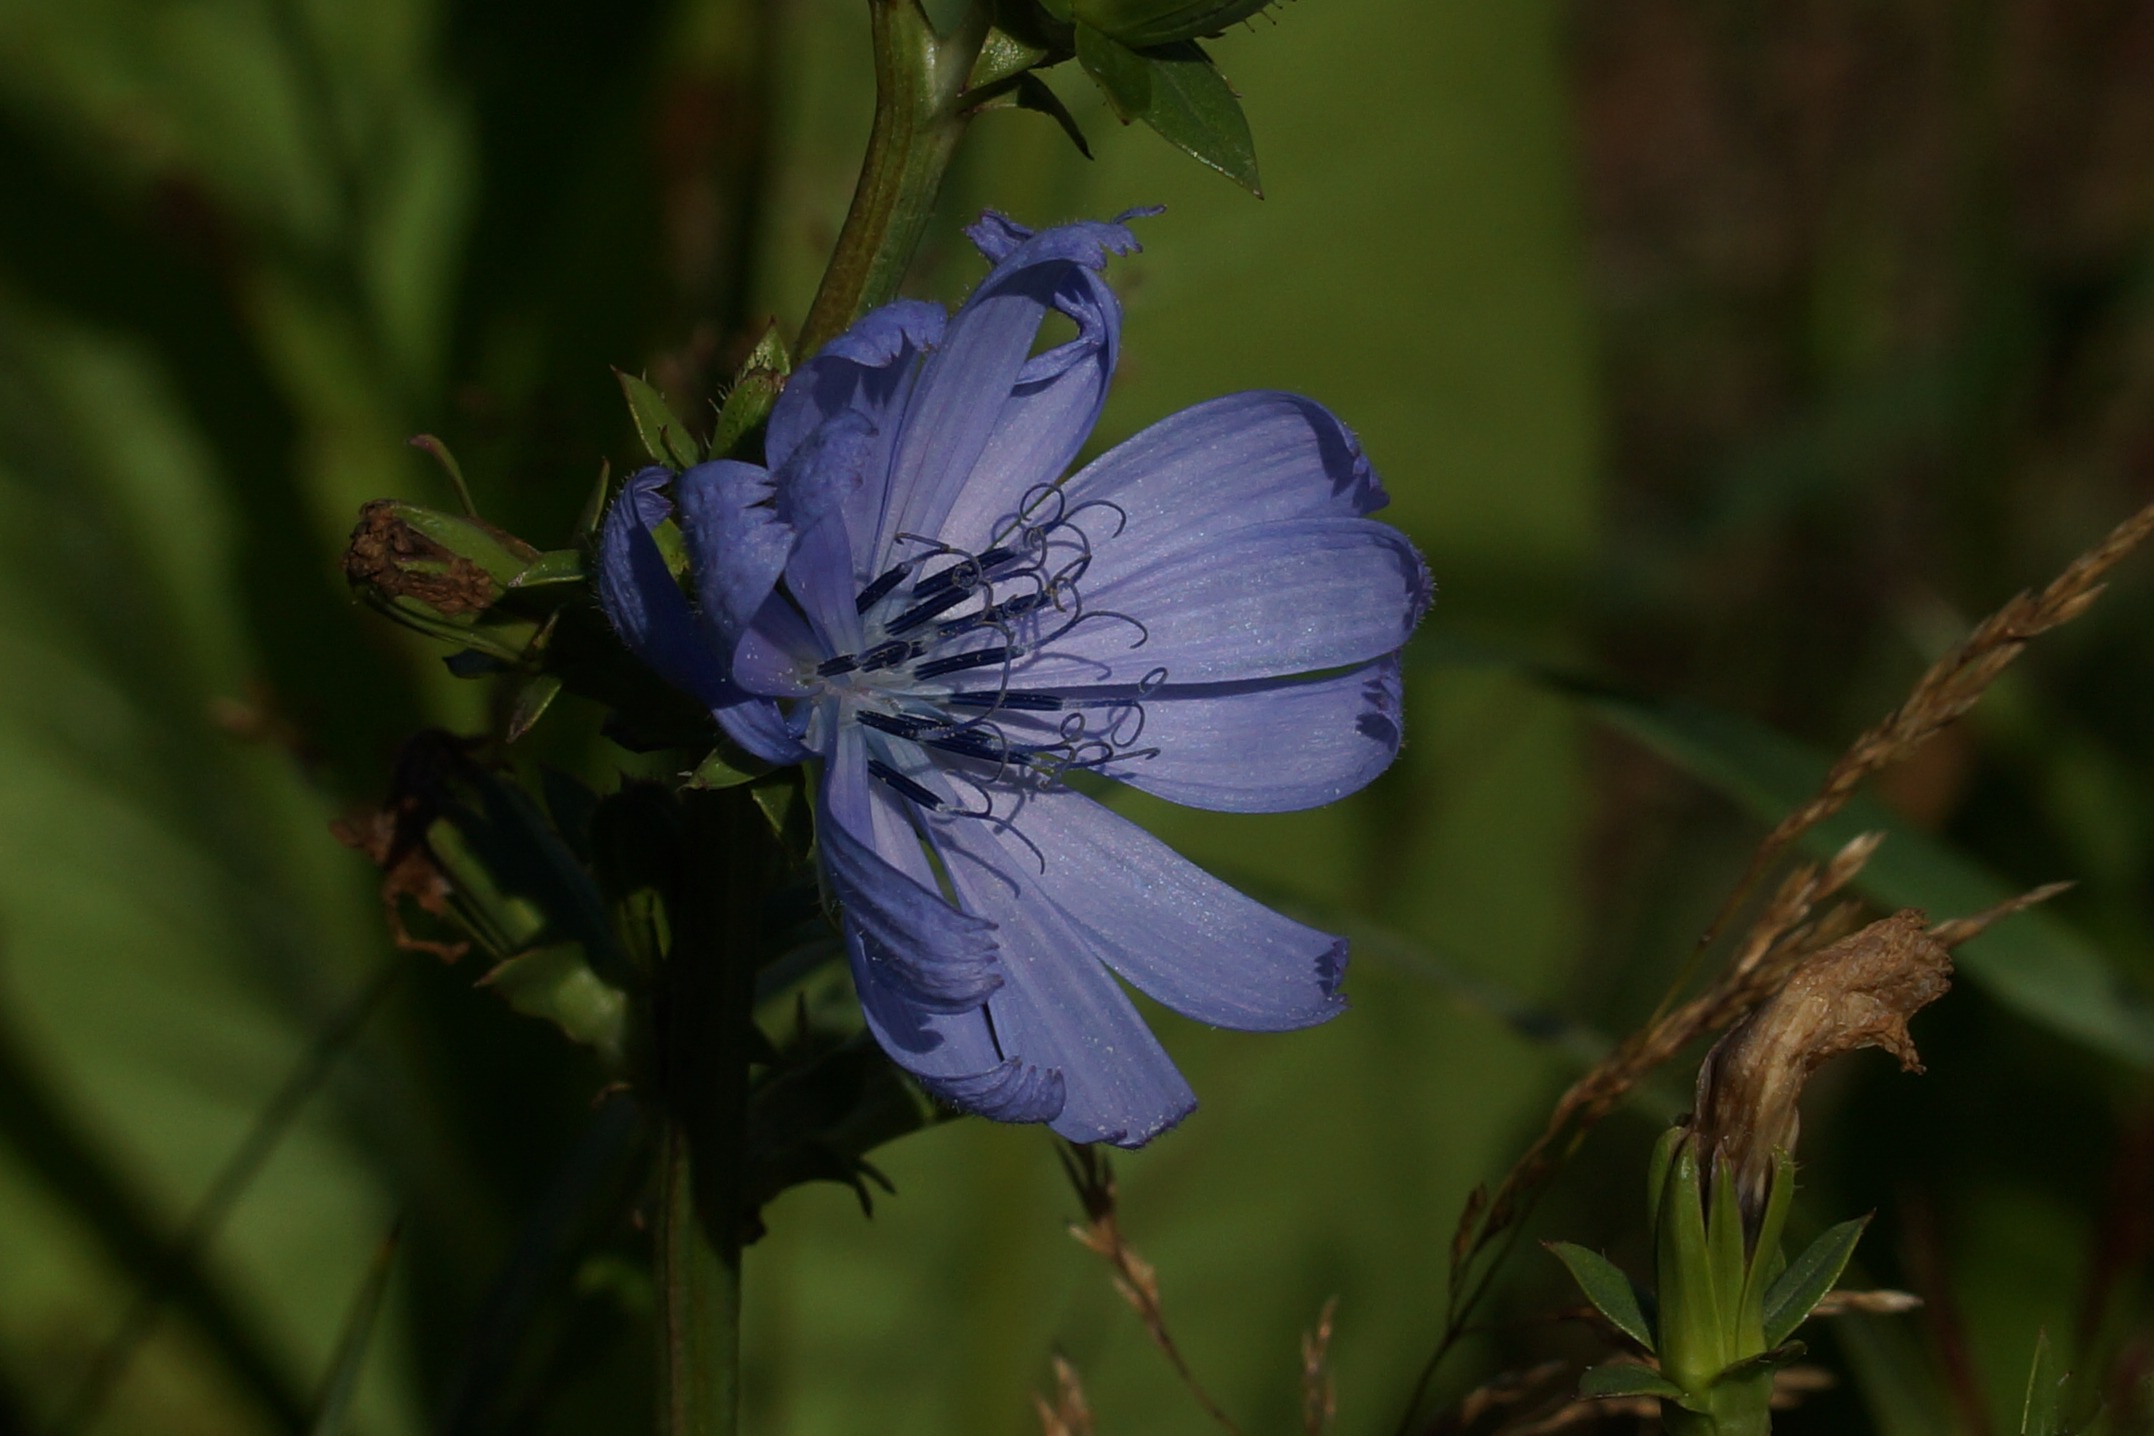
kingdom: Plantae
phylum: Tracheophyta
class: Magnoliopsida
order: Asterales
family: Asteraceae
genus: Cichorium
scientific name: Cichorium intybus
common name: Cikorie
